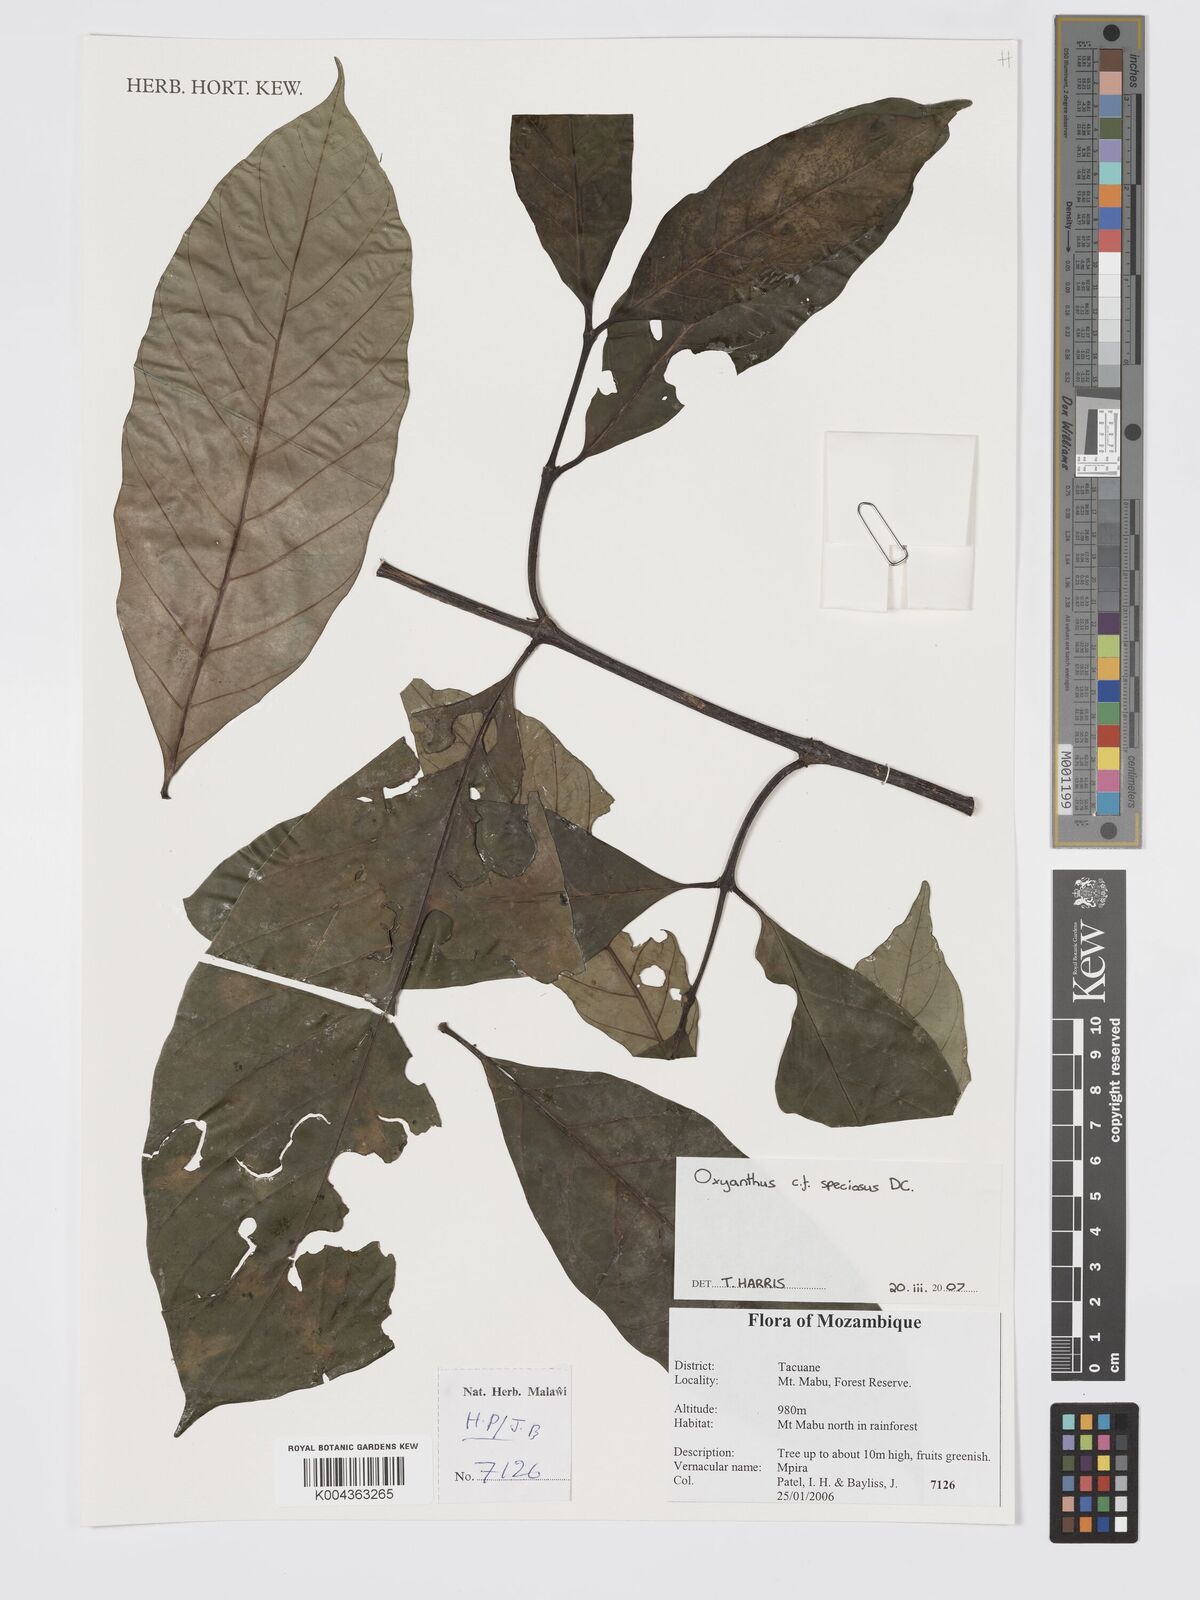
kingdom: Plantae
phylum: Tracheophyta
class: Magnoliopsida
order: Gentianales
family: Rubiaceae
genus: Oxyanthus
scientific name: Oxyanthus speciosus
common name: Whipstick loquat
